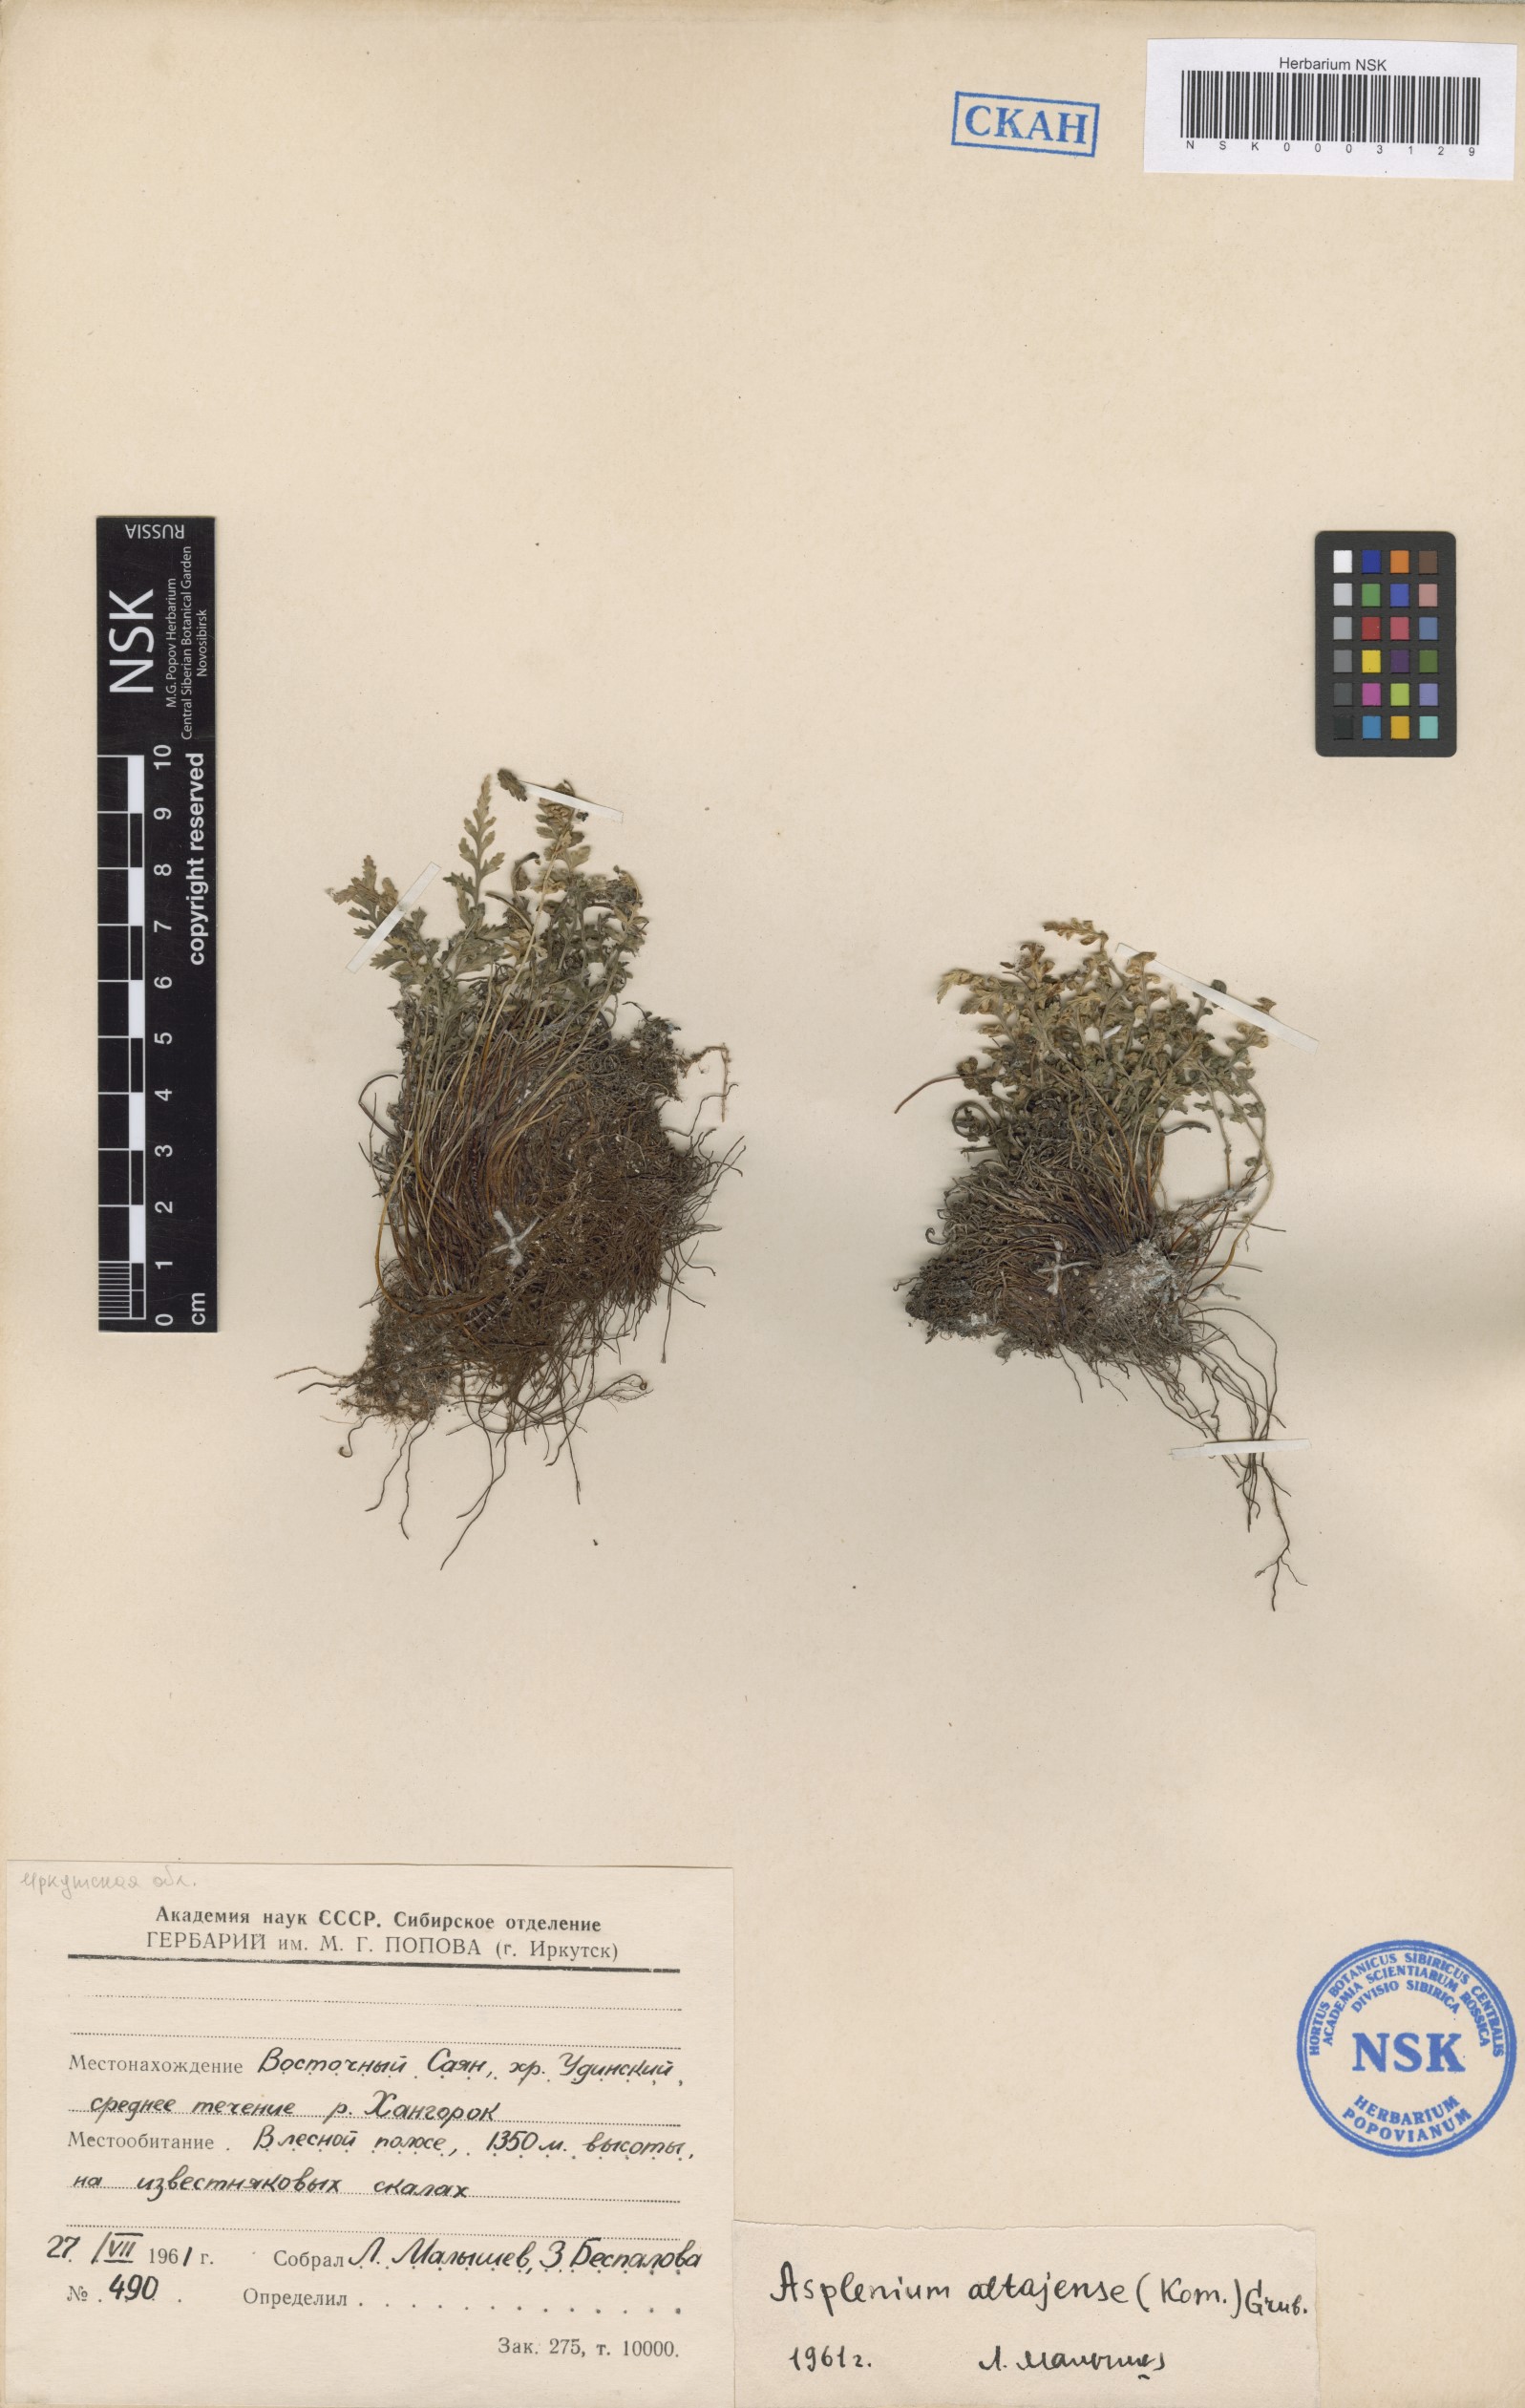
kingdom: Plantae
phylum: Tracheophyta
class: Polypodiopsida
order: Polypodiales
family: Aspleniaceae
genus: Asplenium
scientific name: Asplenium altajense
